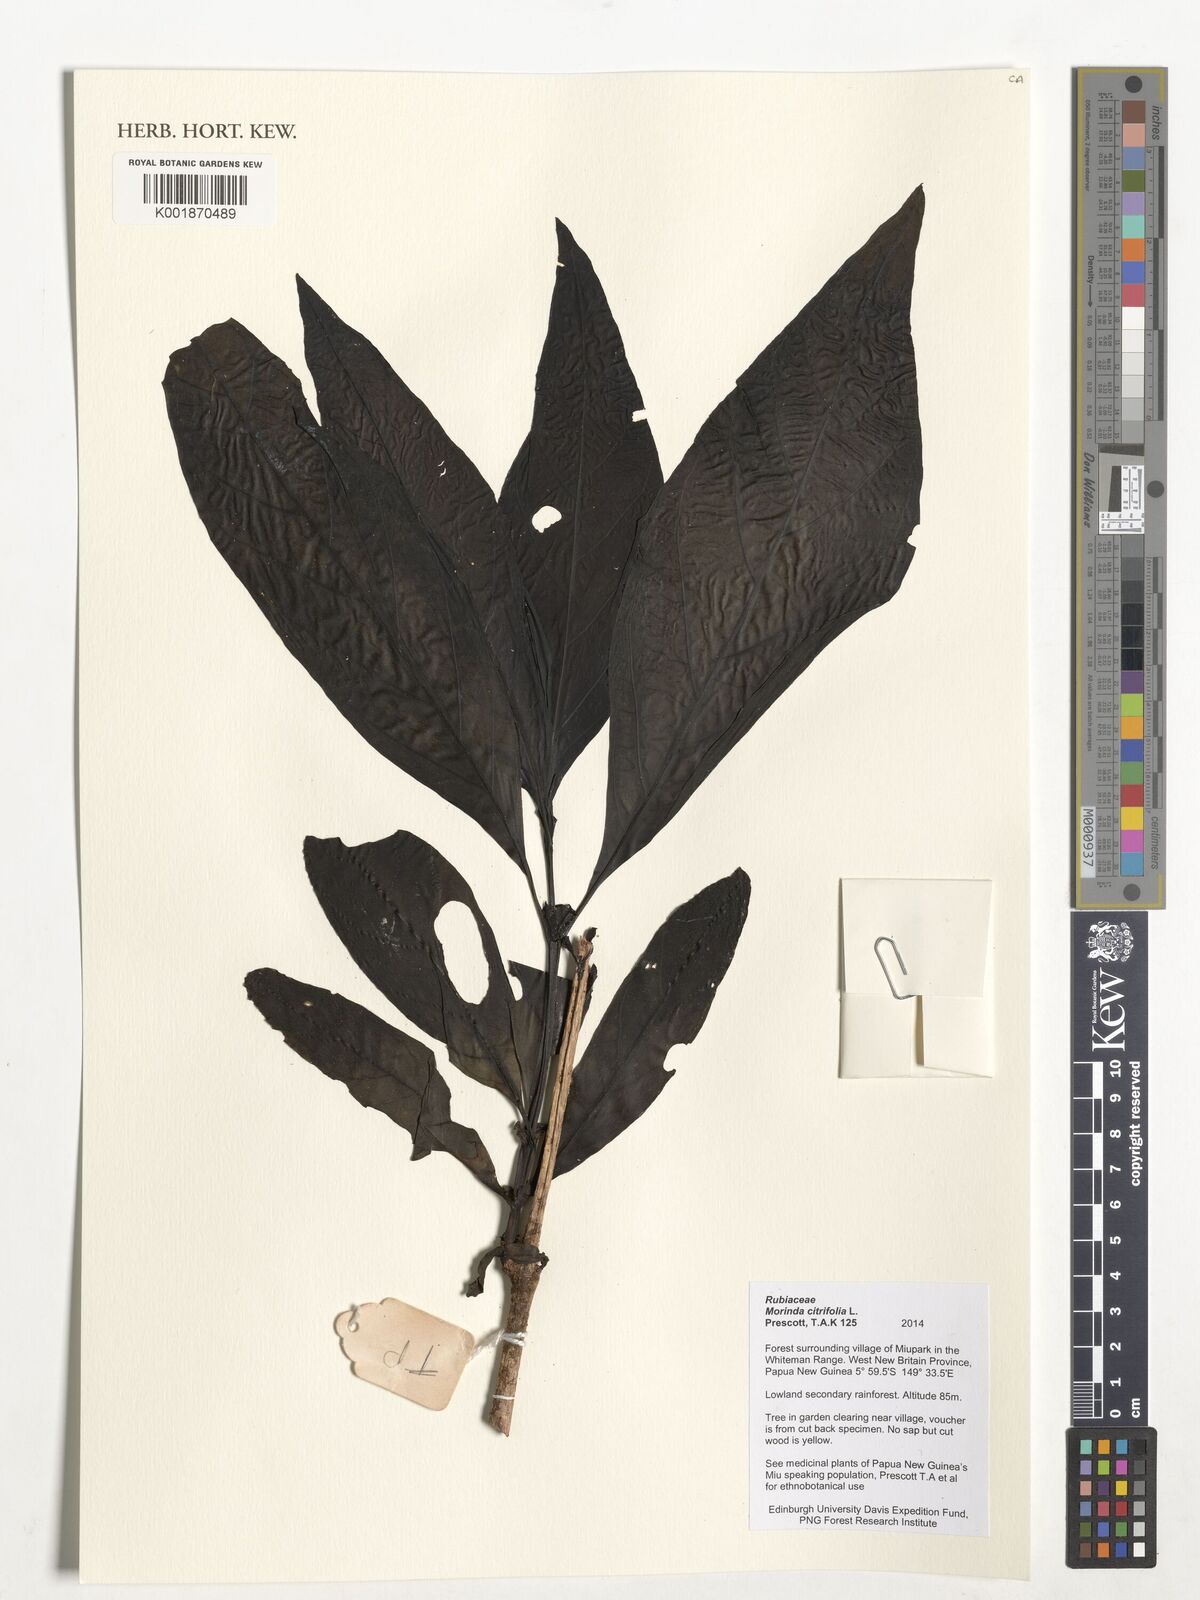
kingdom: Plantae
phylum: Tracheophyta
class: Magnoliopsida
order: Gentianales
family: Rubiaceae
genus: Morinda
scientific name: Morinda citrifolia
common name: Indian-mulberry
